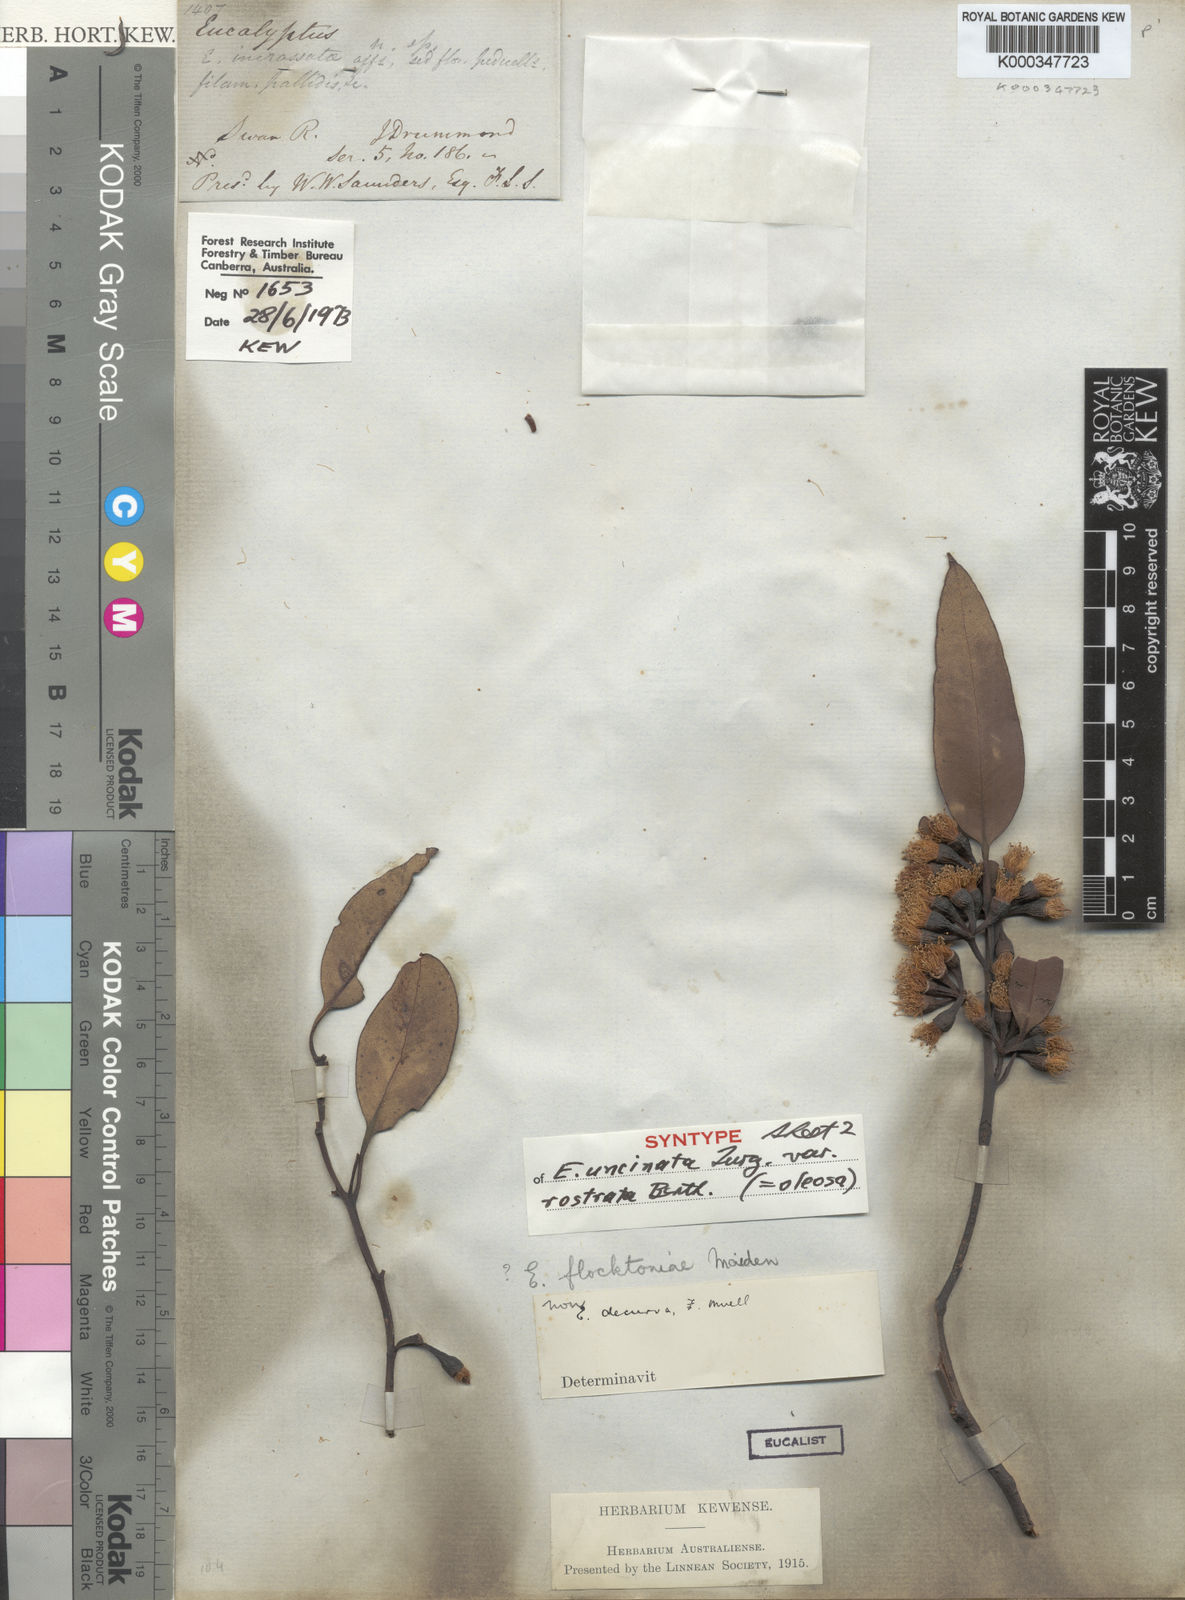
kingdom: Plantae
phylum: Tracheophyta
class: Magnoliopsida
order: Myrtales
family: Myrtaceae
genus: Eucalyptus
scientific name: Eucalyptus oleosa
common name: Oil mallee
